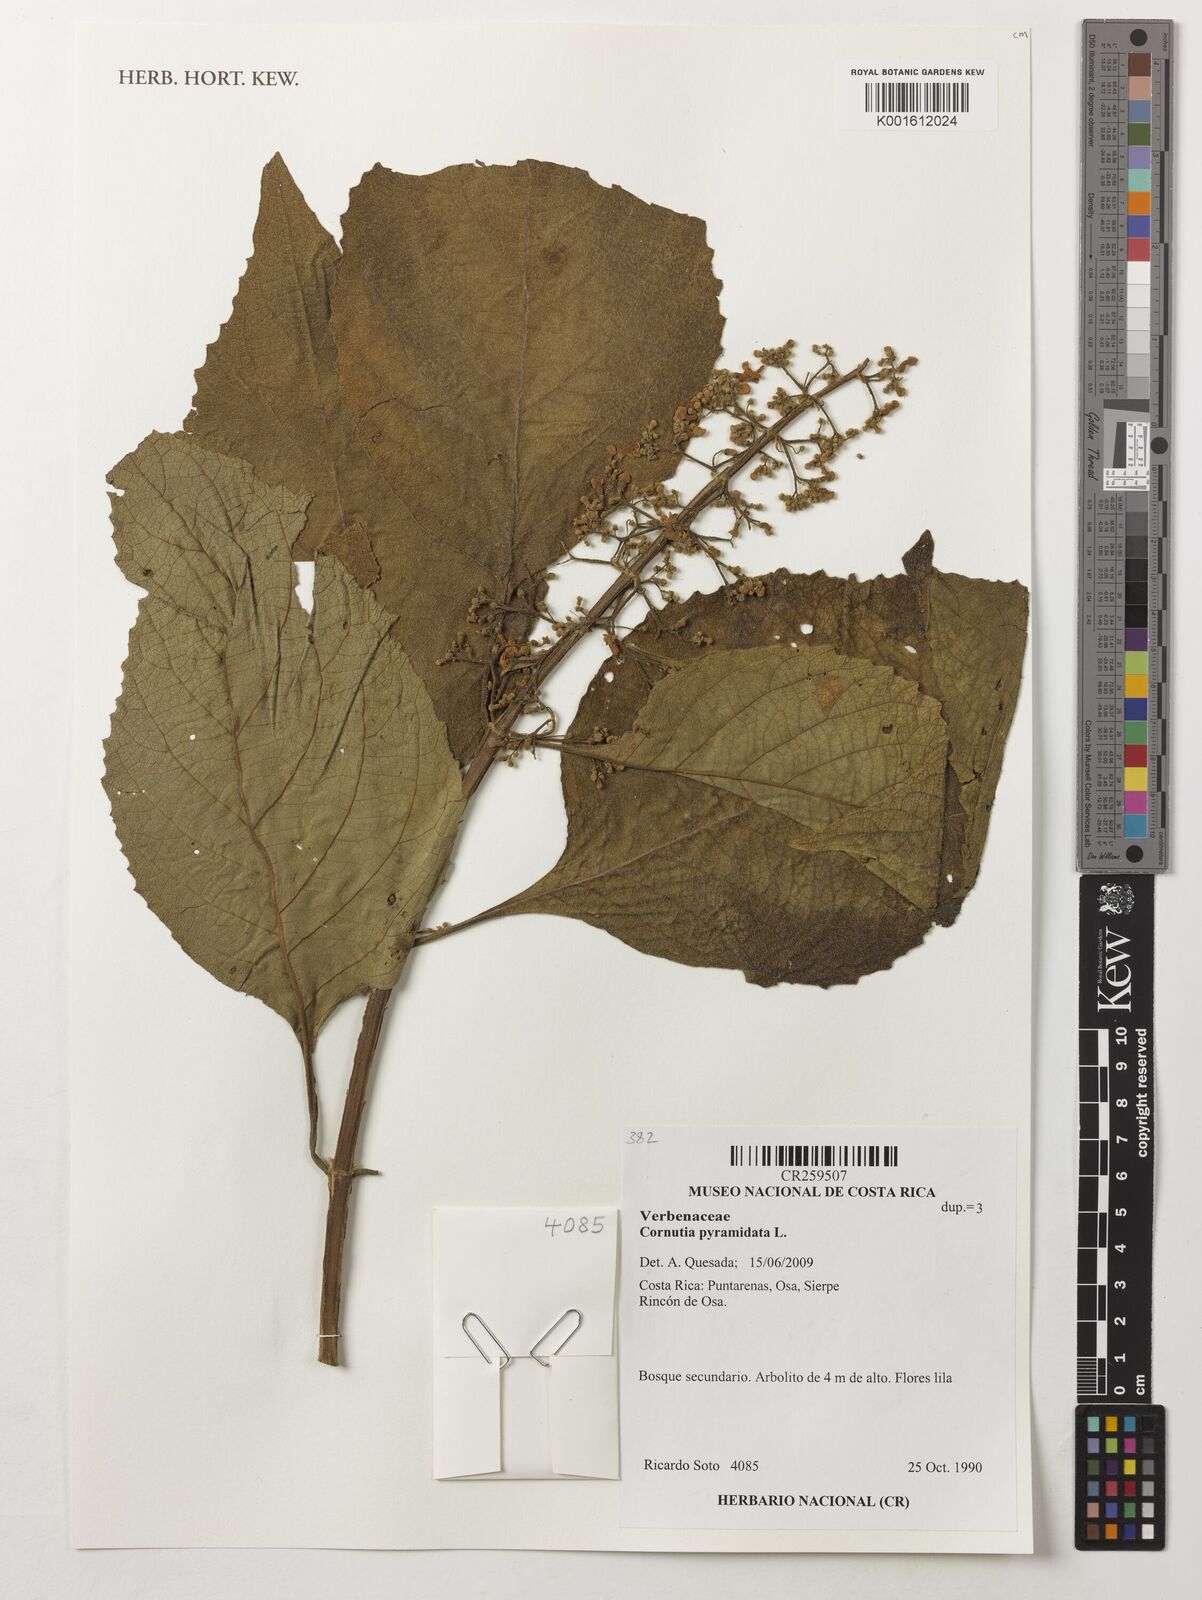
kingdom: Plantae
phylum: Tracheophyta
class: Magnoliopsida
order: Lamiales
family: Lamiaceae
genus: Cornutia
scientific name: Cornutia pyramidata
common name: Azulejo
